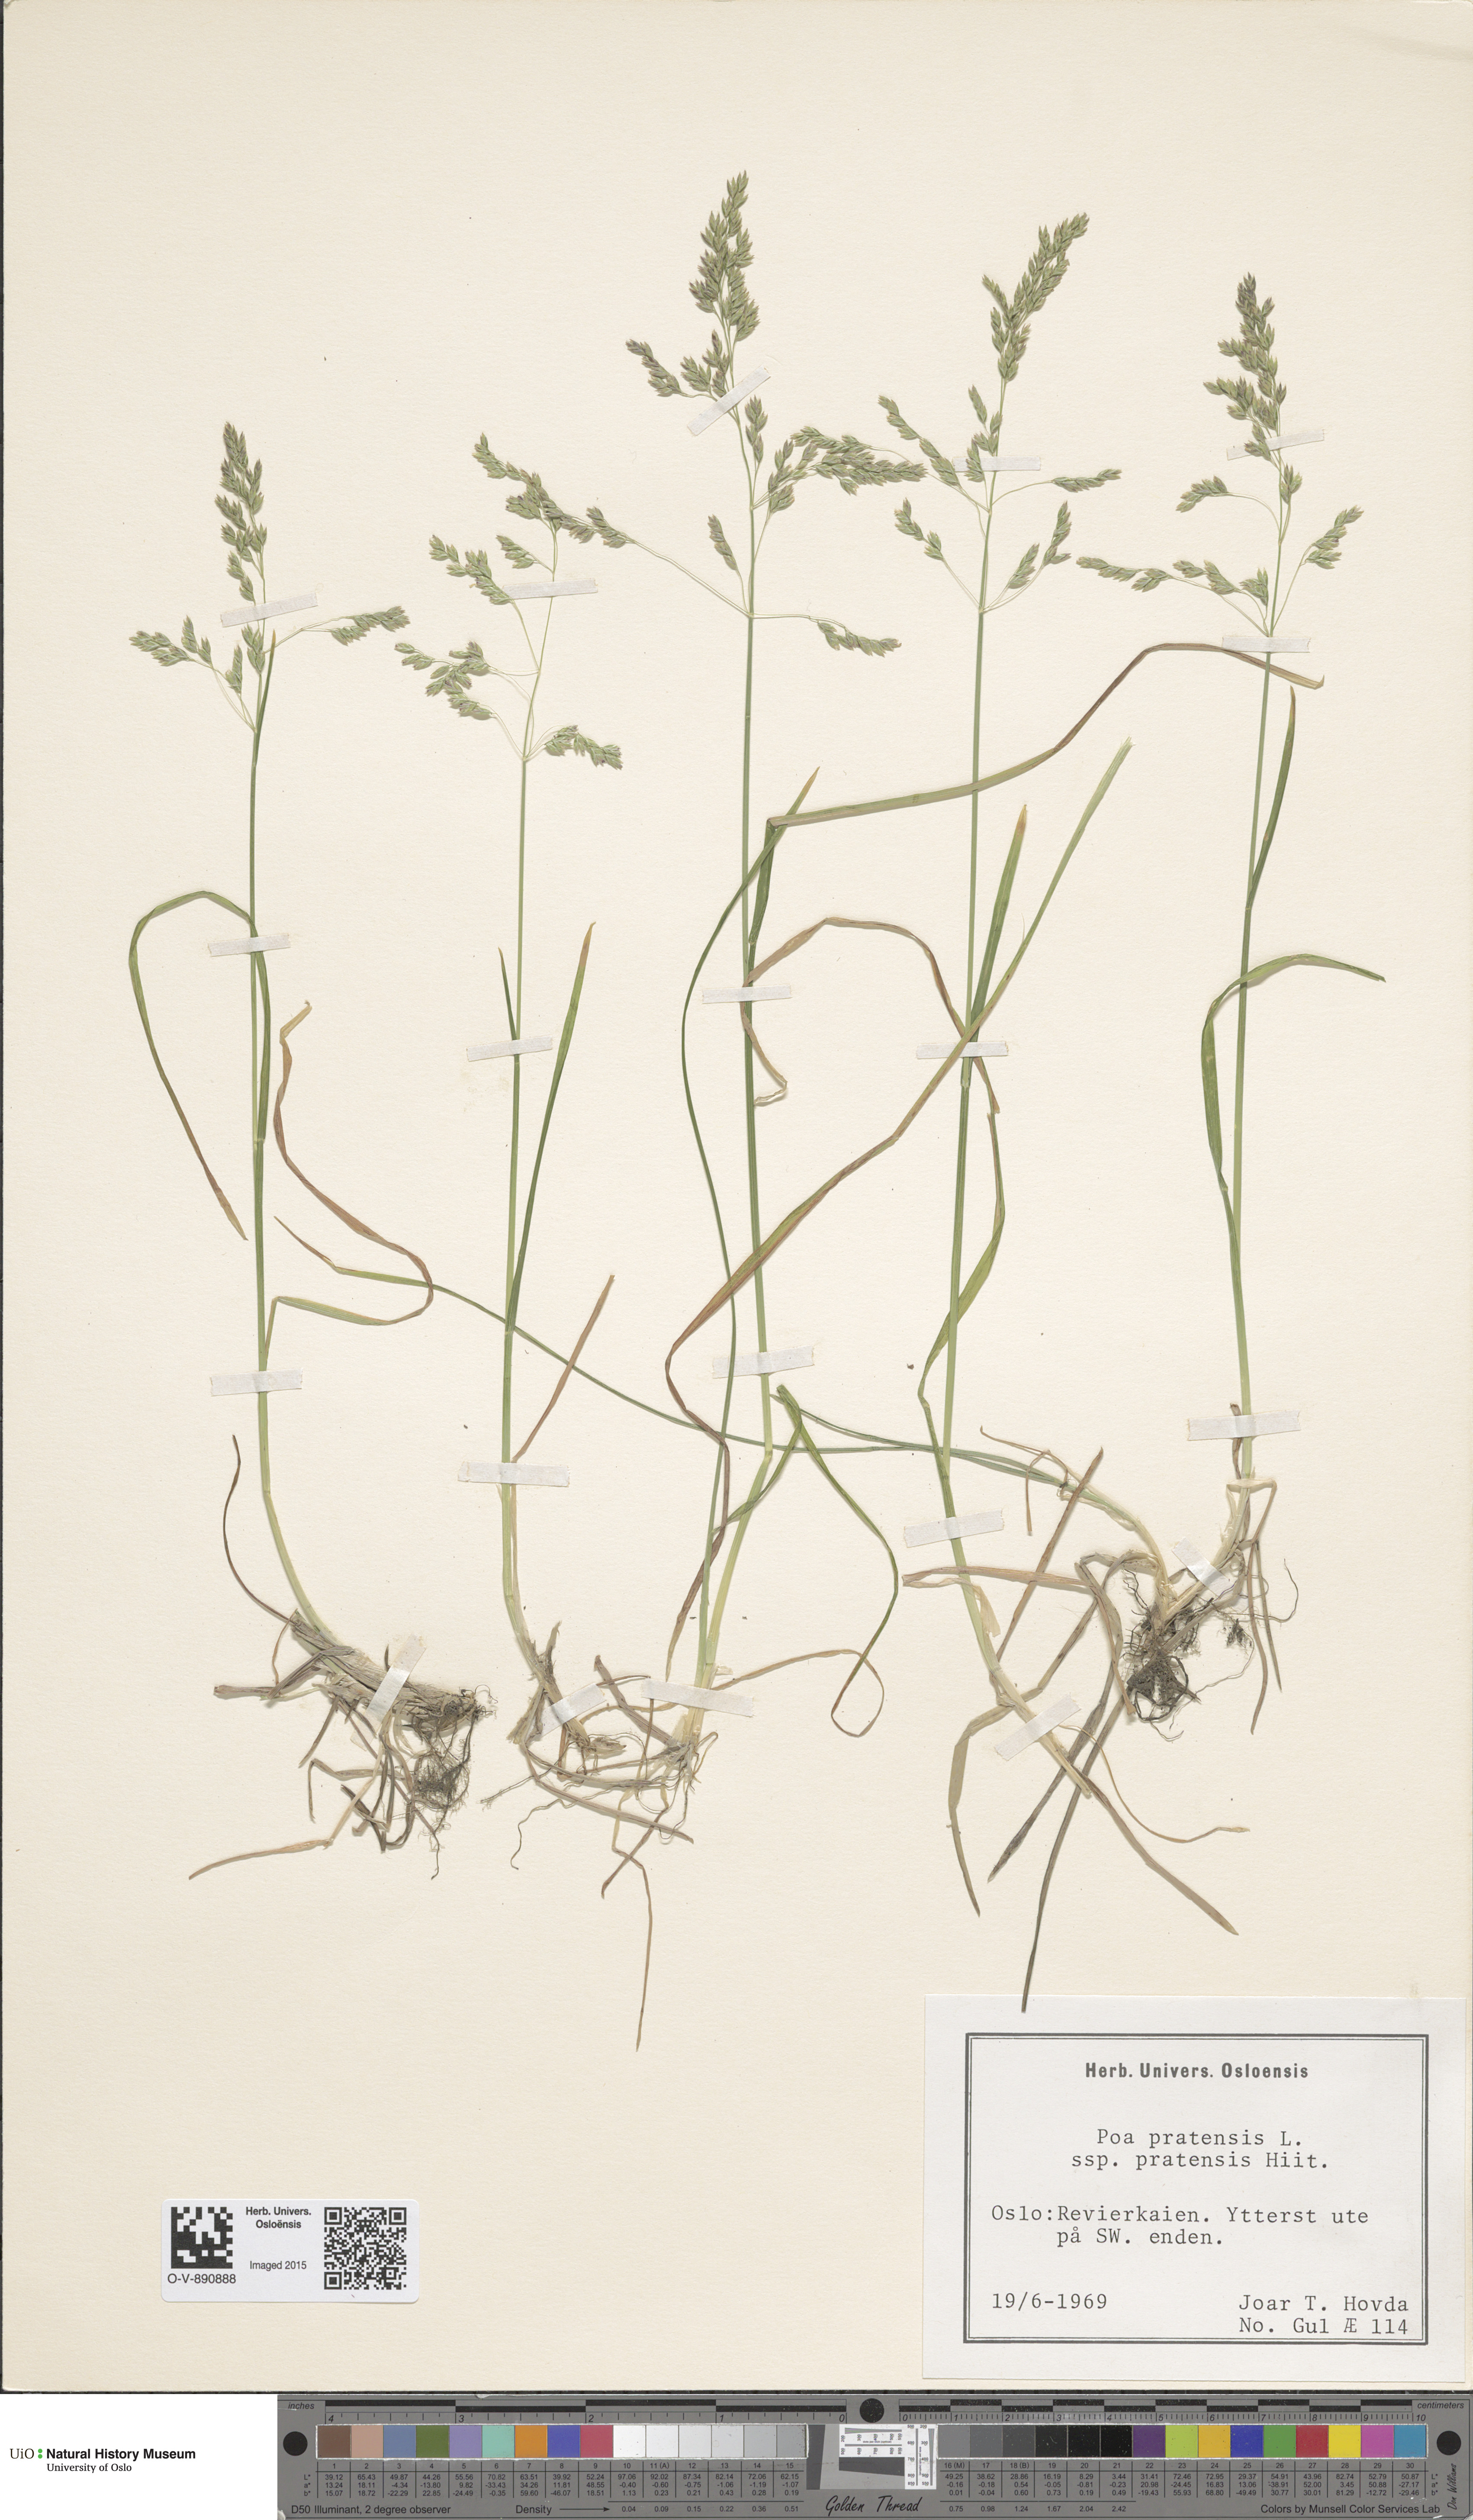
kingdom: Plantae
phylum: Tracheophyta
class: Liliopsida
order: Poales
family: Poaceae
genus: Poa
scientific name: Poa pratensis
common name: Kentucky bluegrass
